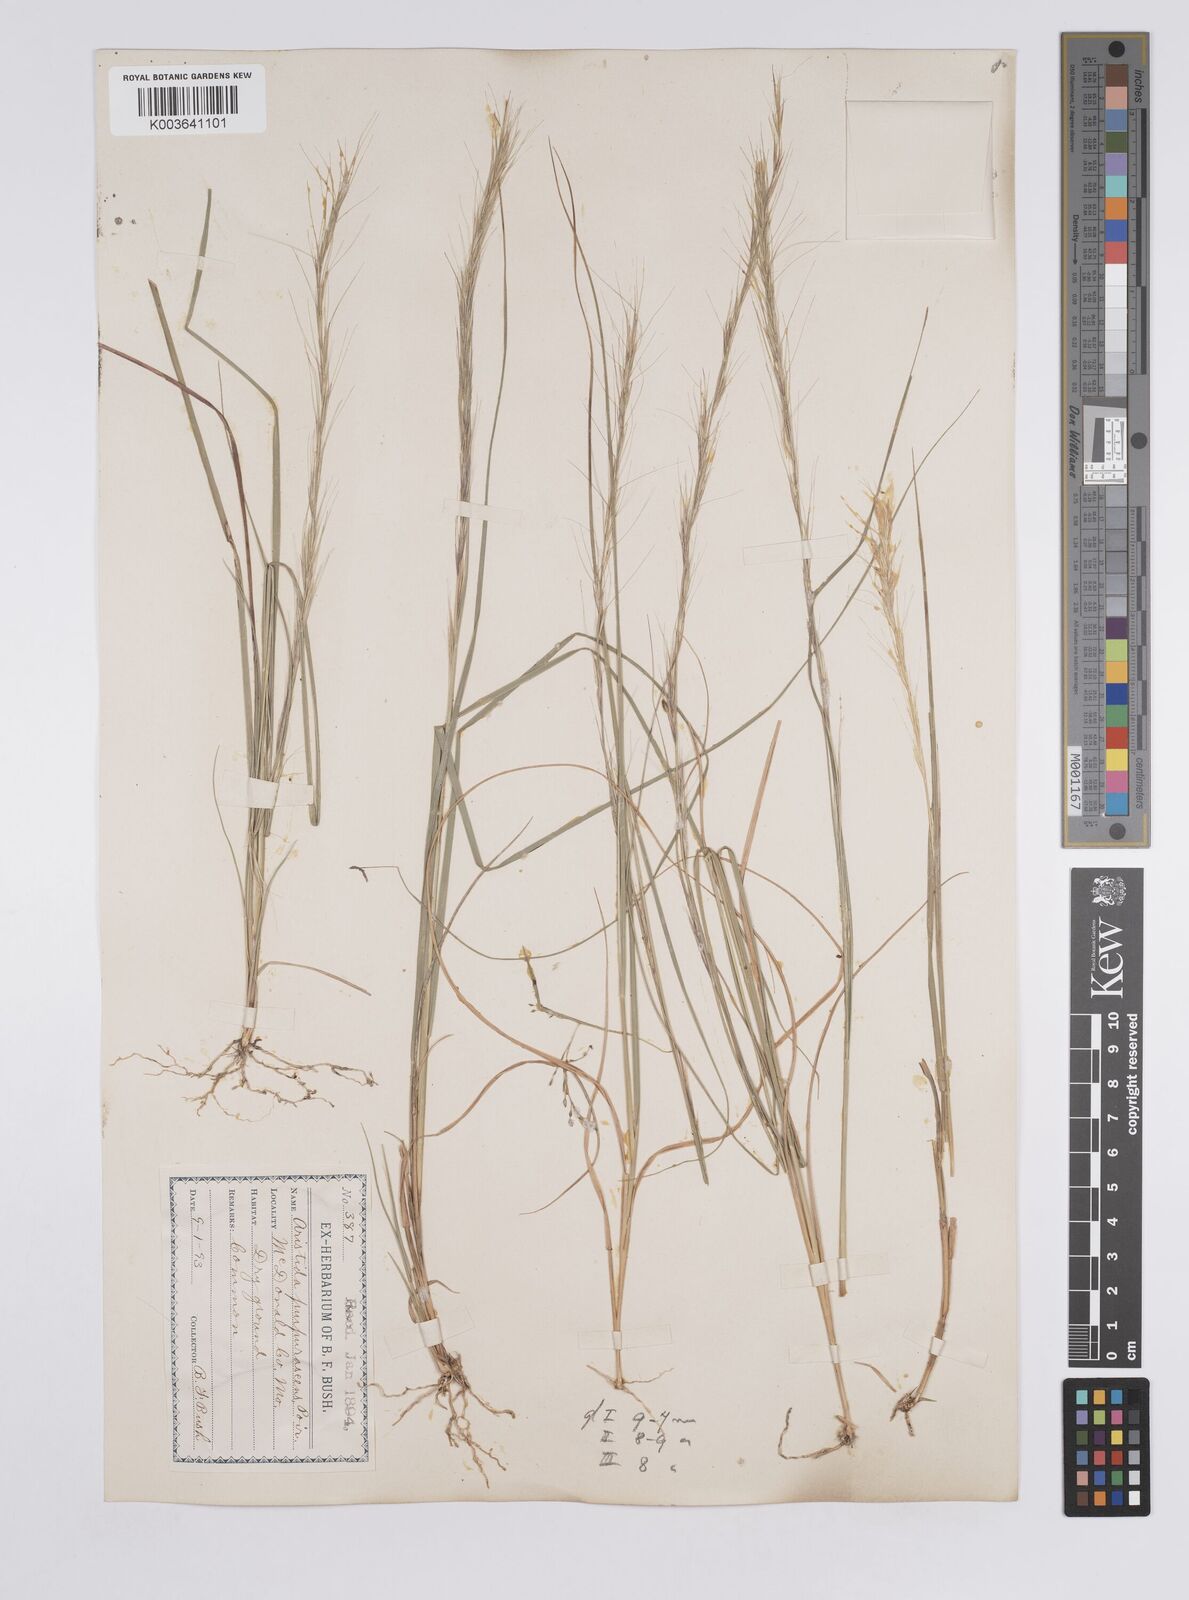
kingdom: Plantae
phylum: Tracheophyta
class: Liliopsida
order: Poales
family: Poaceae
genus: Aristida
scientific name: Aristida purpurascens
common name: Arrow-feather
